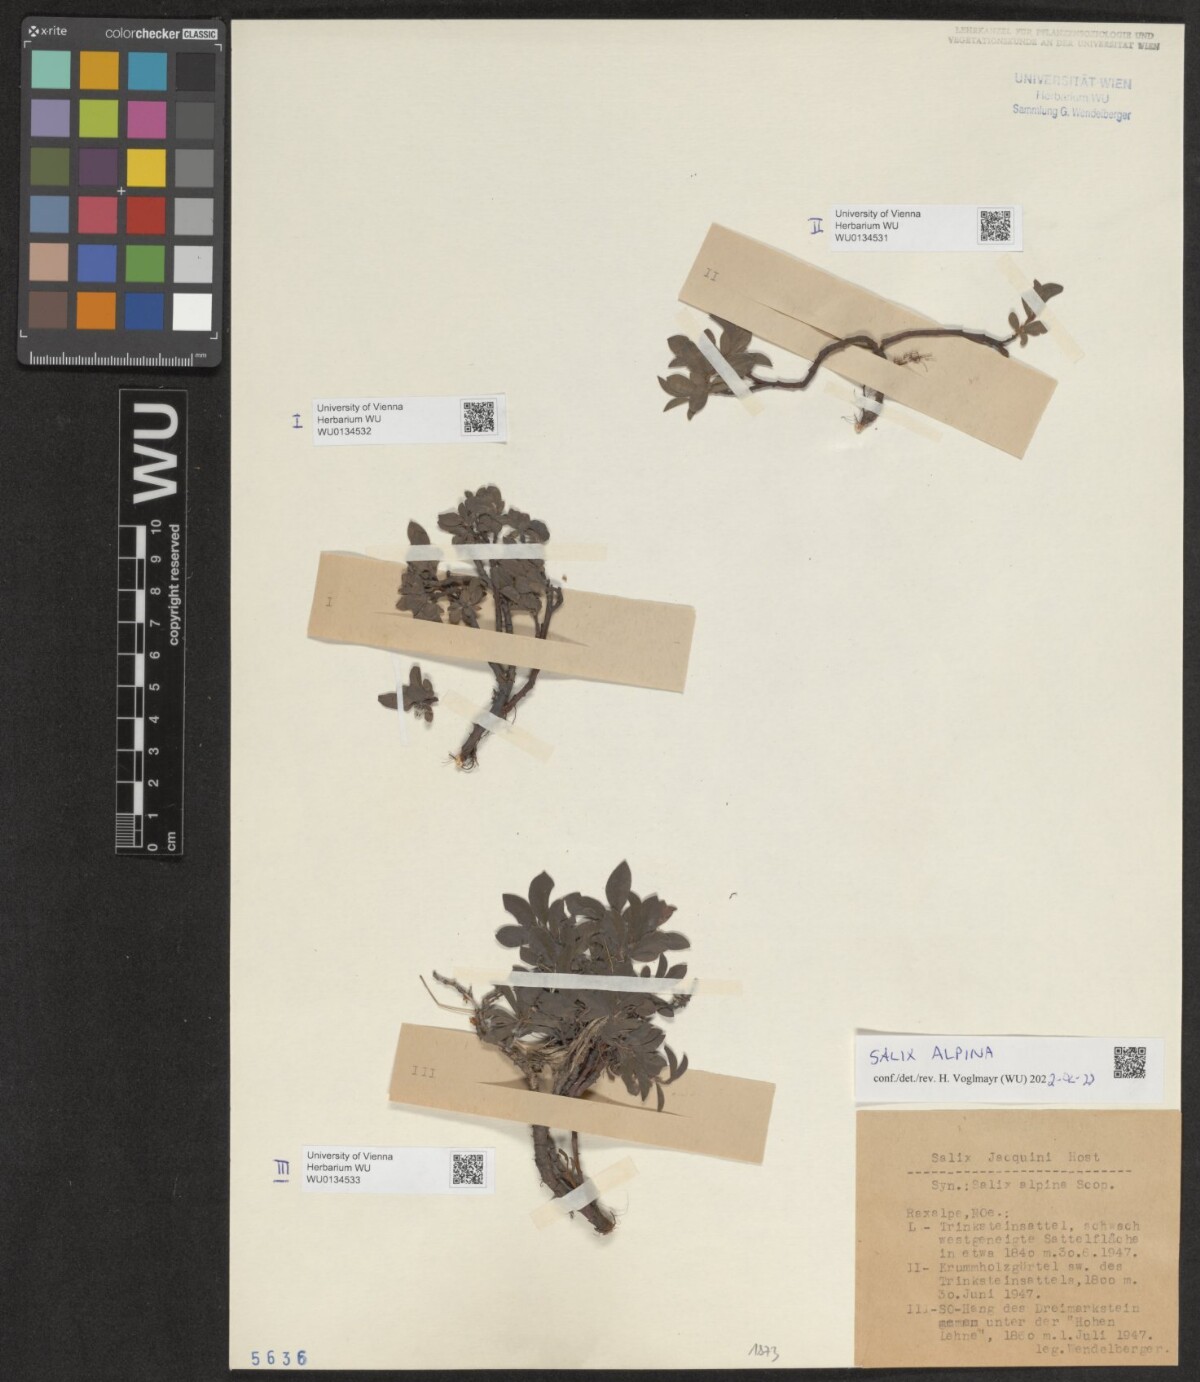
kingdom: Plantae
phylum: Tracheophyta
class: Magnoliopsida
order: Malpighiales
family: Salicaceae
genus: Salix
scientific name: Salix alpina
